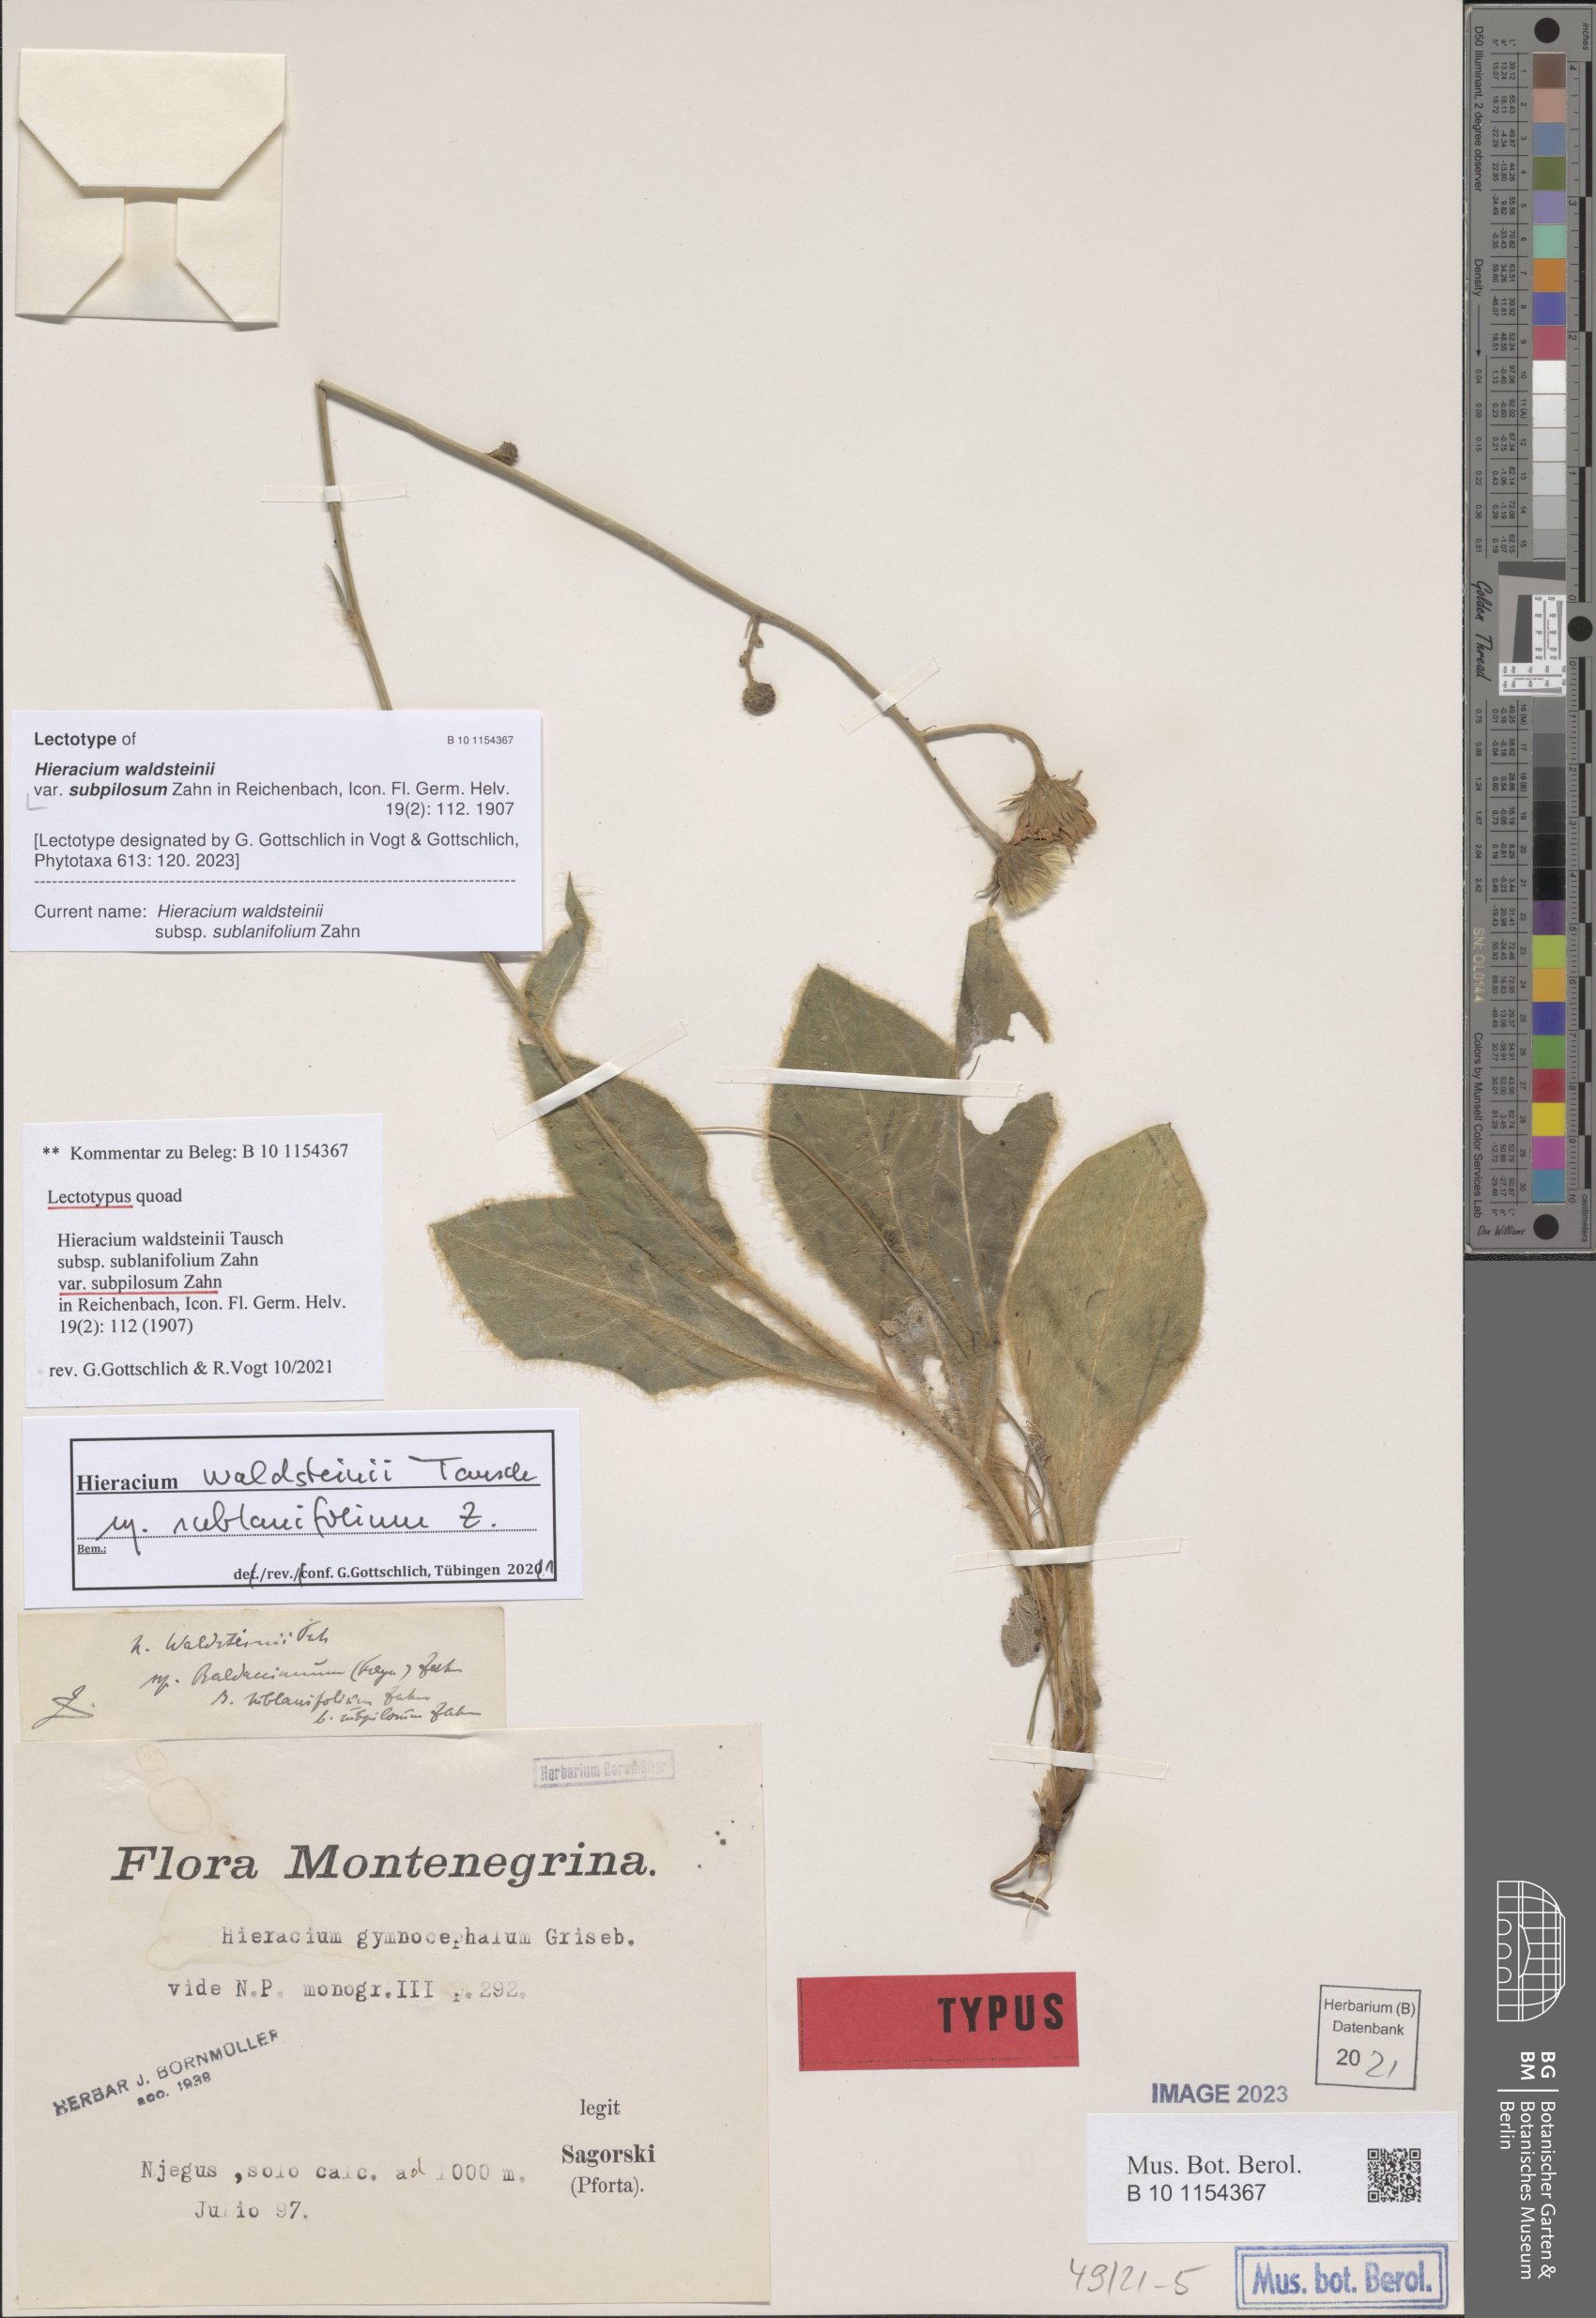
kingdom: Plantae
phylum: Tracheophyta
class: Magnoliopsida
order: Asterales
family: Asteraceae
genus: Hieracium
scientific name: Hieracium waldsteinii
